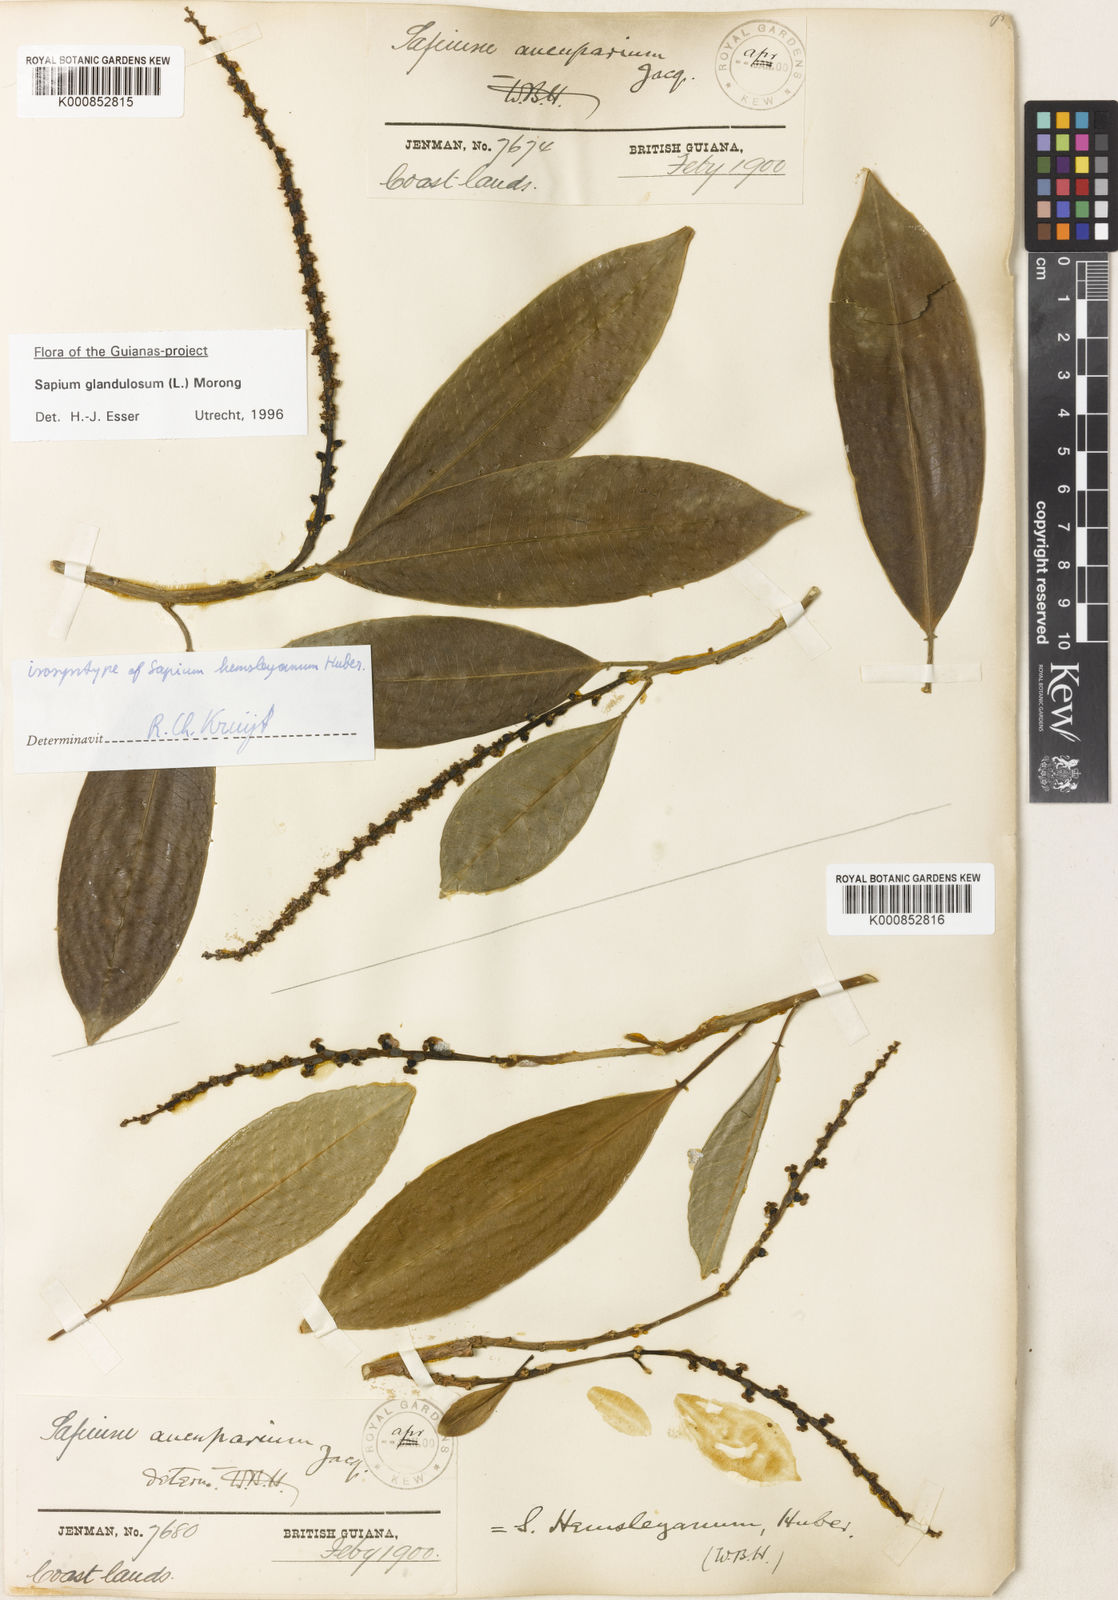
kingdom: Plantae
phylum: Tracheophyta
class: Magnoliopsida
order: Malpighiales
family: Euphorbiaceae
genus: Sapium
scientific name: Sapium glandulosum
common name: Milktree
